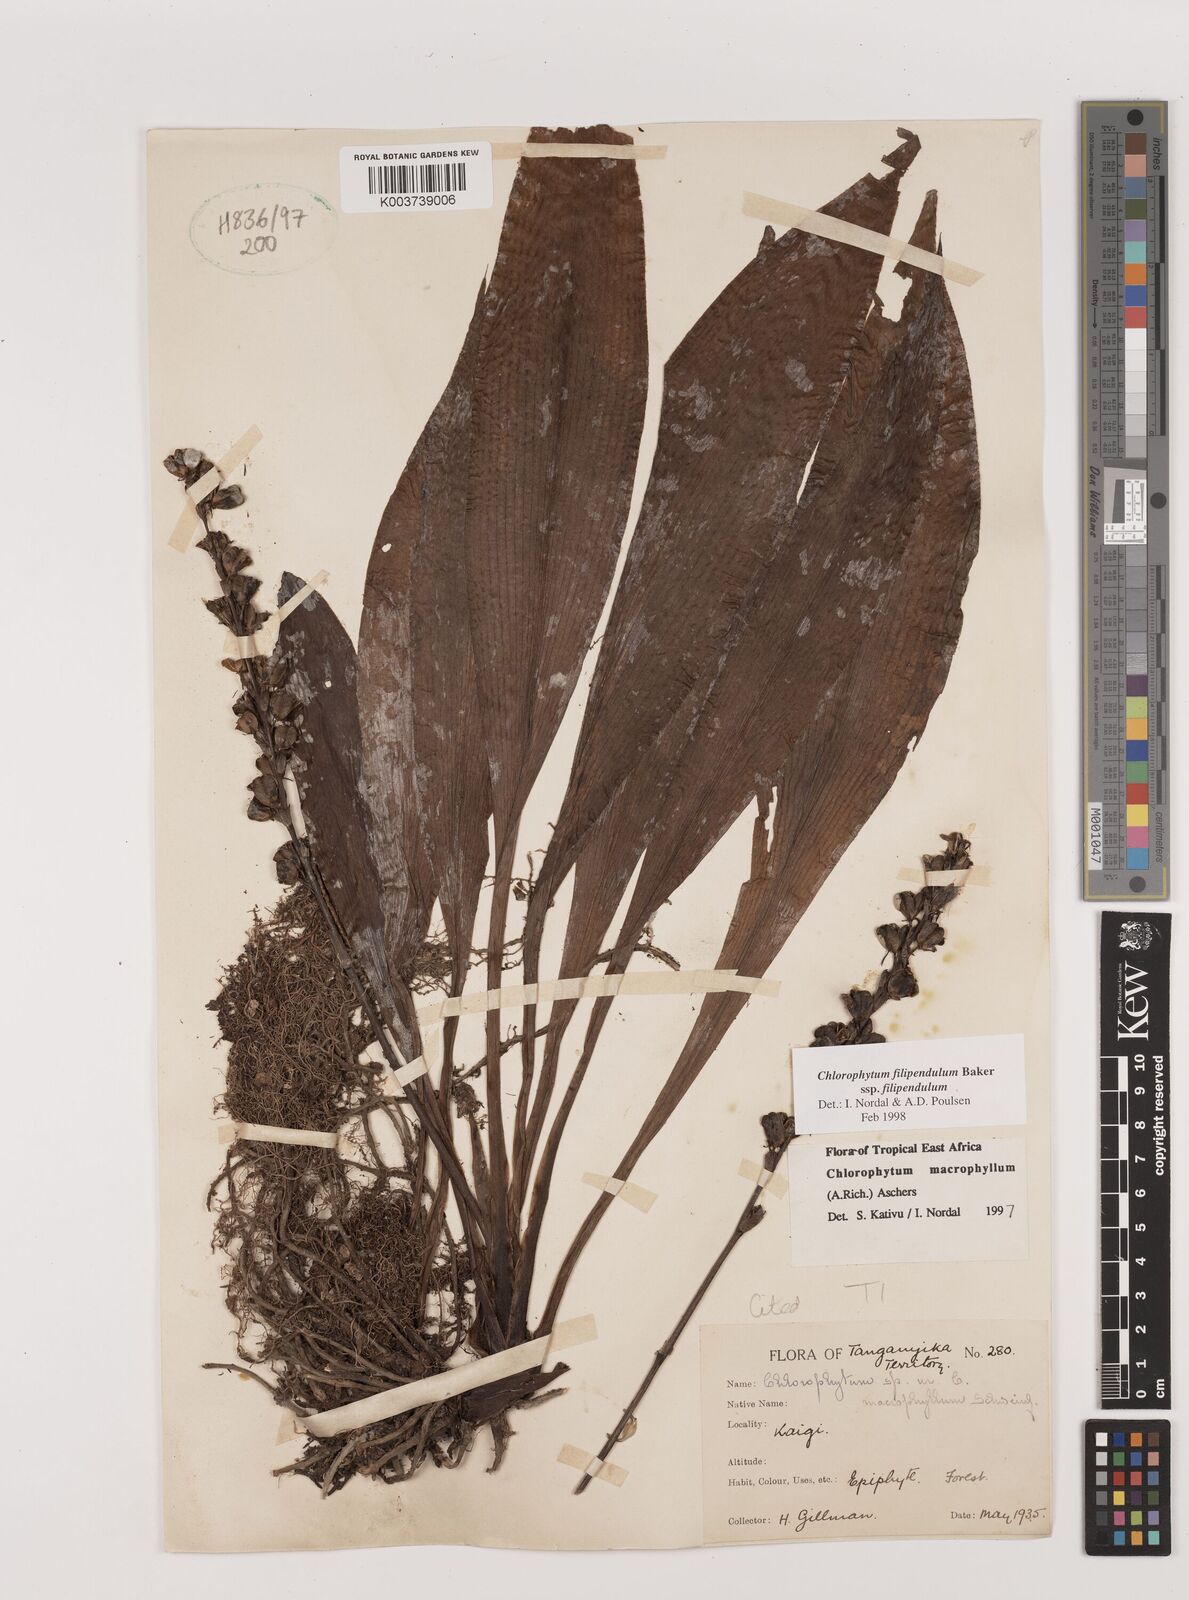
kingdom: Plantae
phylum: Tracheophyta
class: Liliopsida
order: Asparagales
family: Asparagaceae
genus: Chlorophytum
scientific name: Chlorophytum filipendulum
